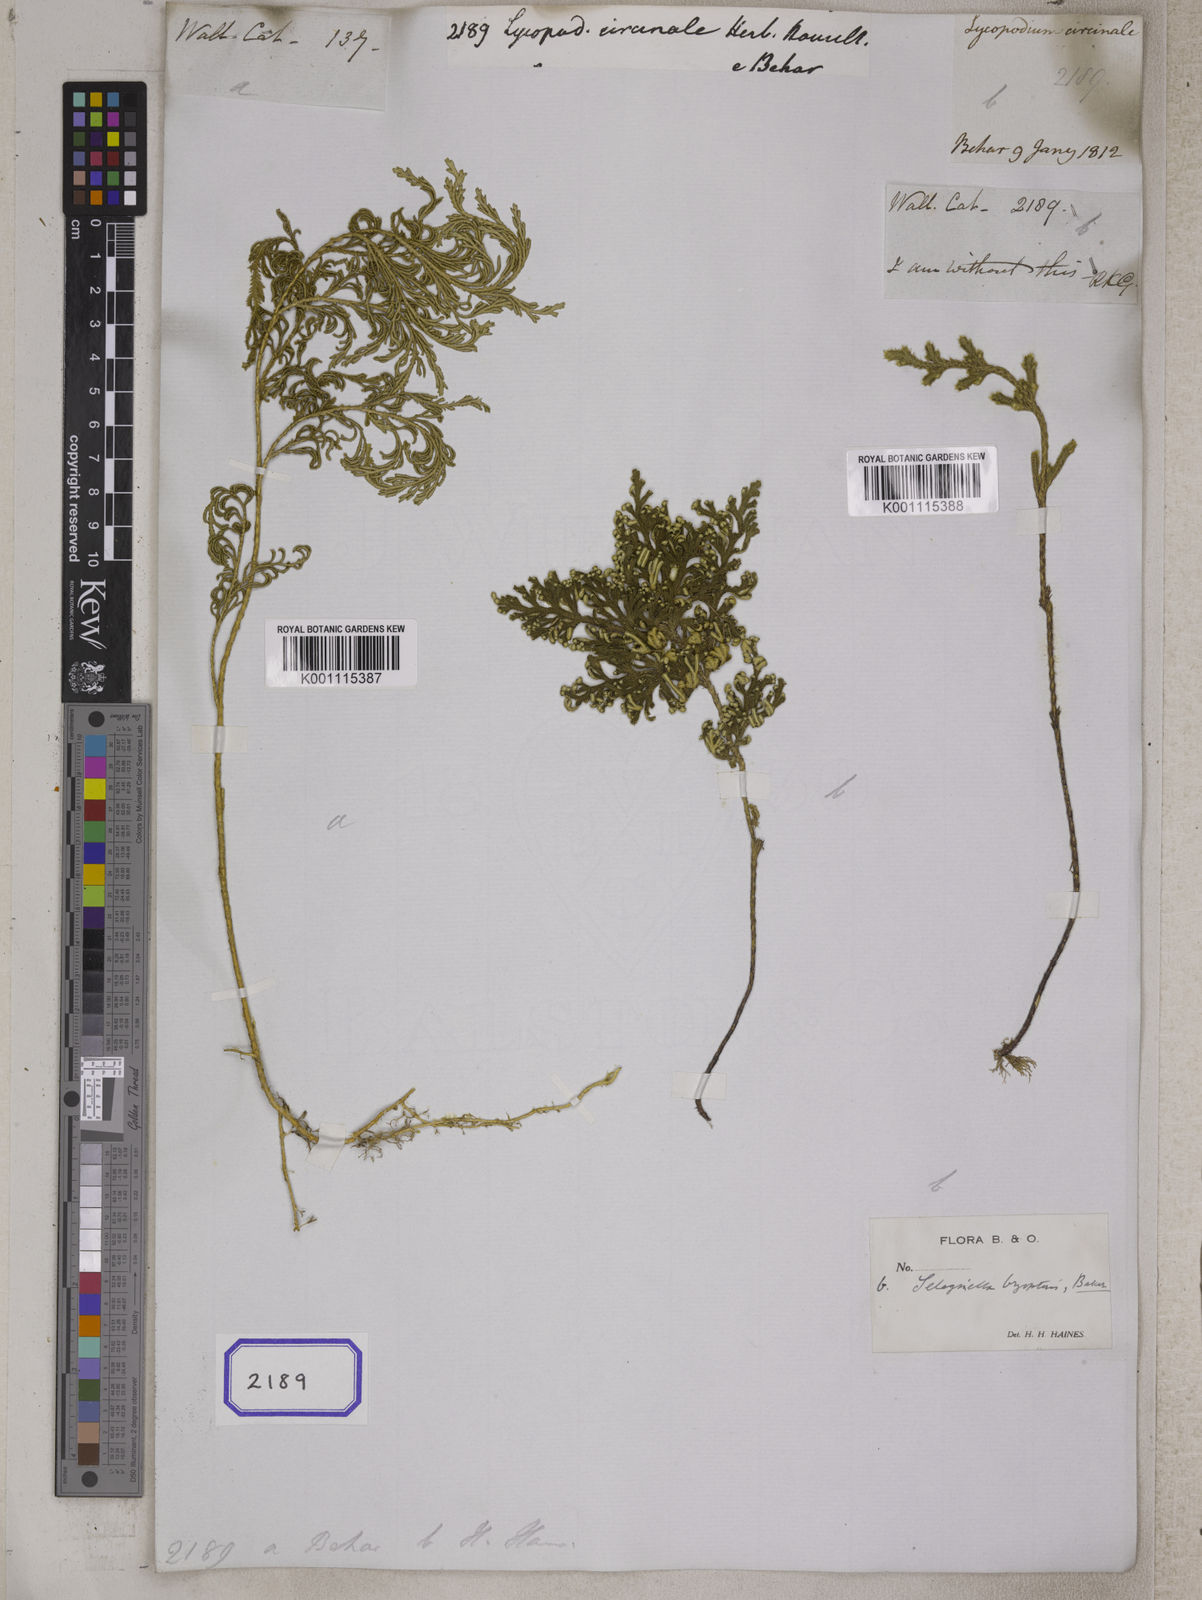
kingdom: Plantae
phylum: Tracheophyta
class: Lycopodiopsida
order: Lycopodiales
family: Lycopodiaceae
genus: Lycopodium
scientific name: Lycopodium
